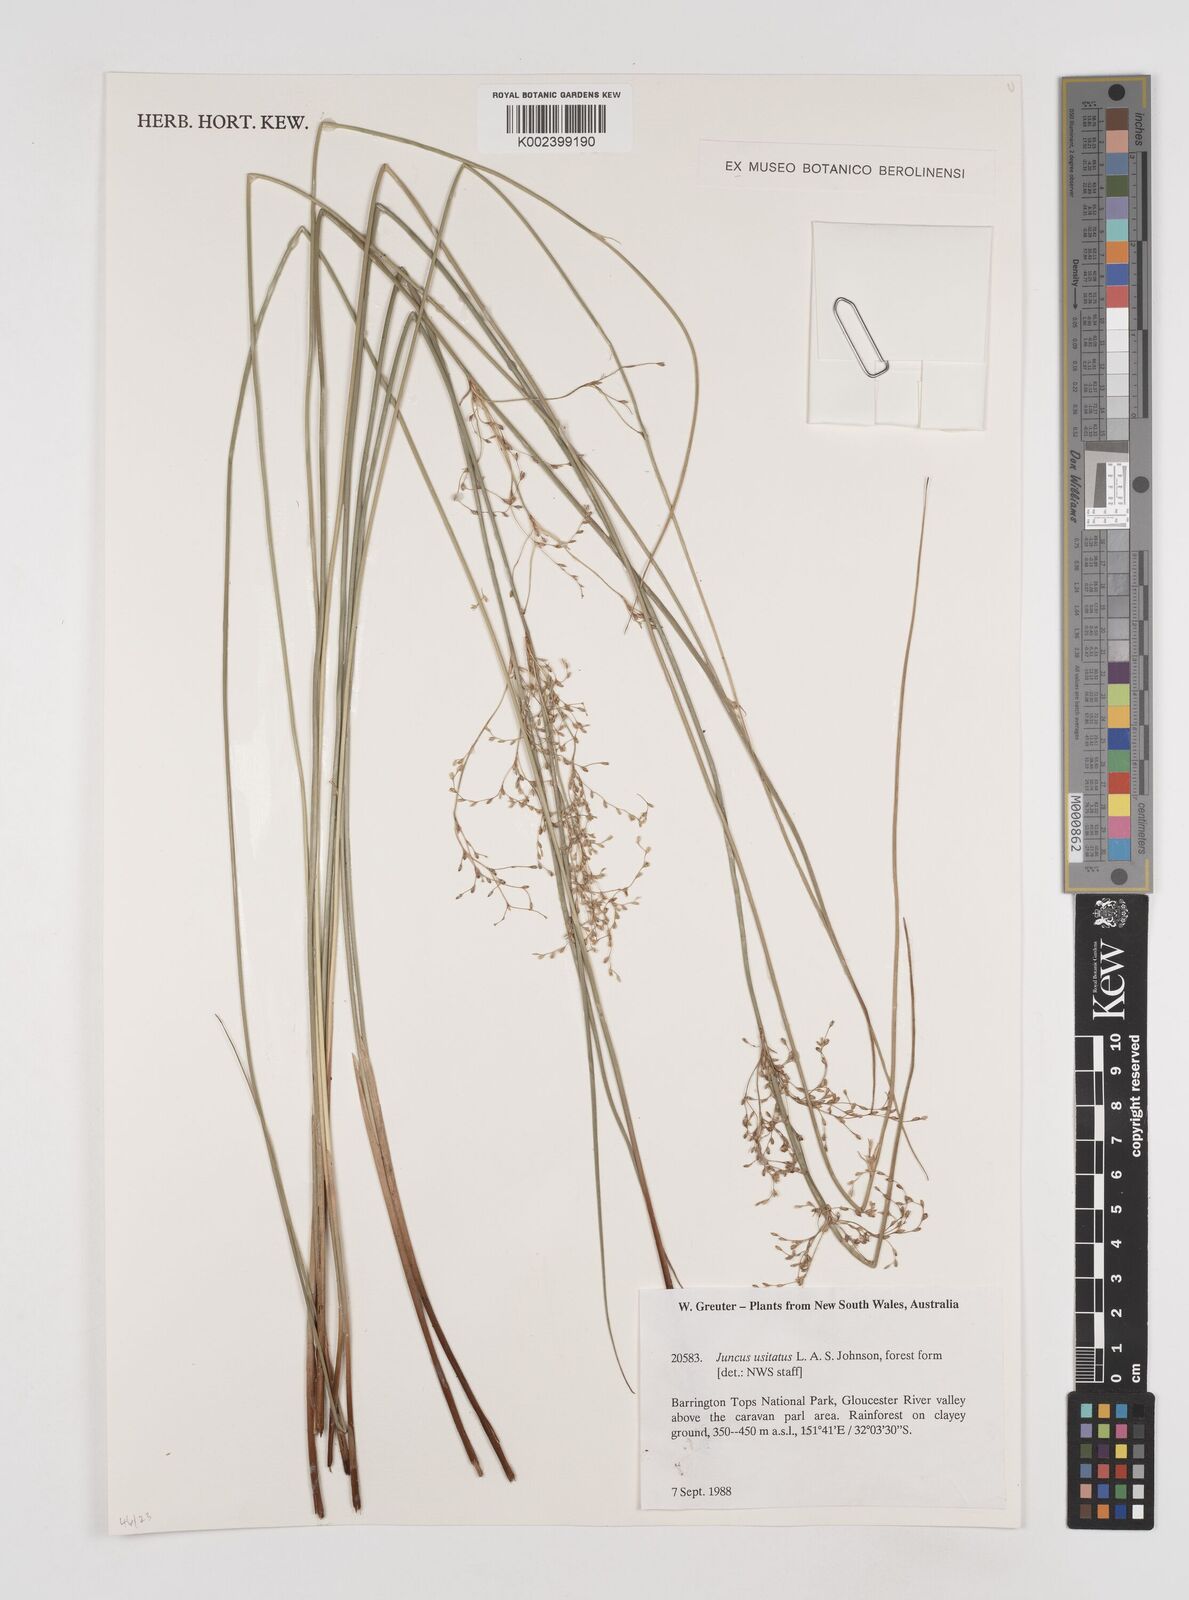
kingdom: Plantae
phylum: Tracheophyta
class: Liliopsida
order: Poales
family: Juncaceae
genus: Juncus
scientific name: Juncus usitatus
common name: Rush
